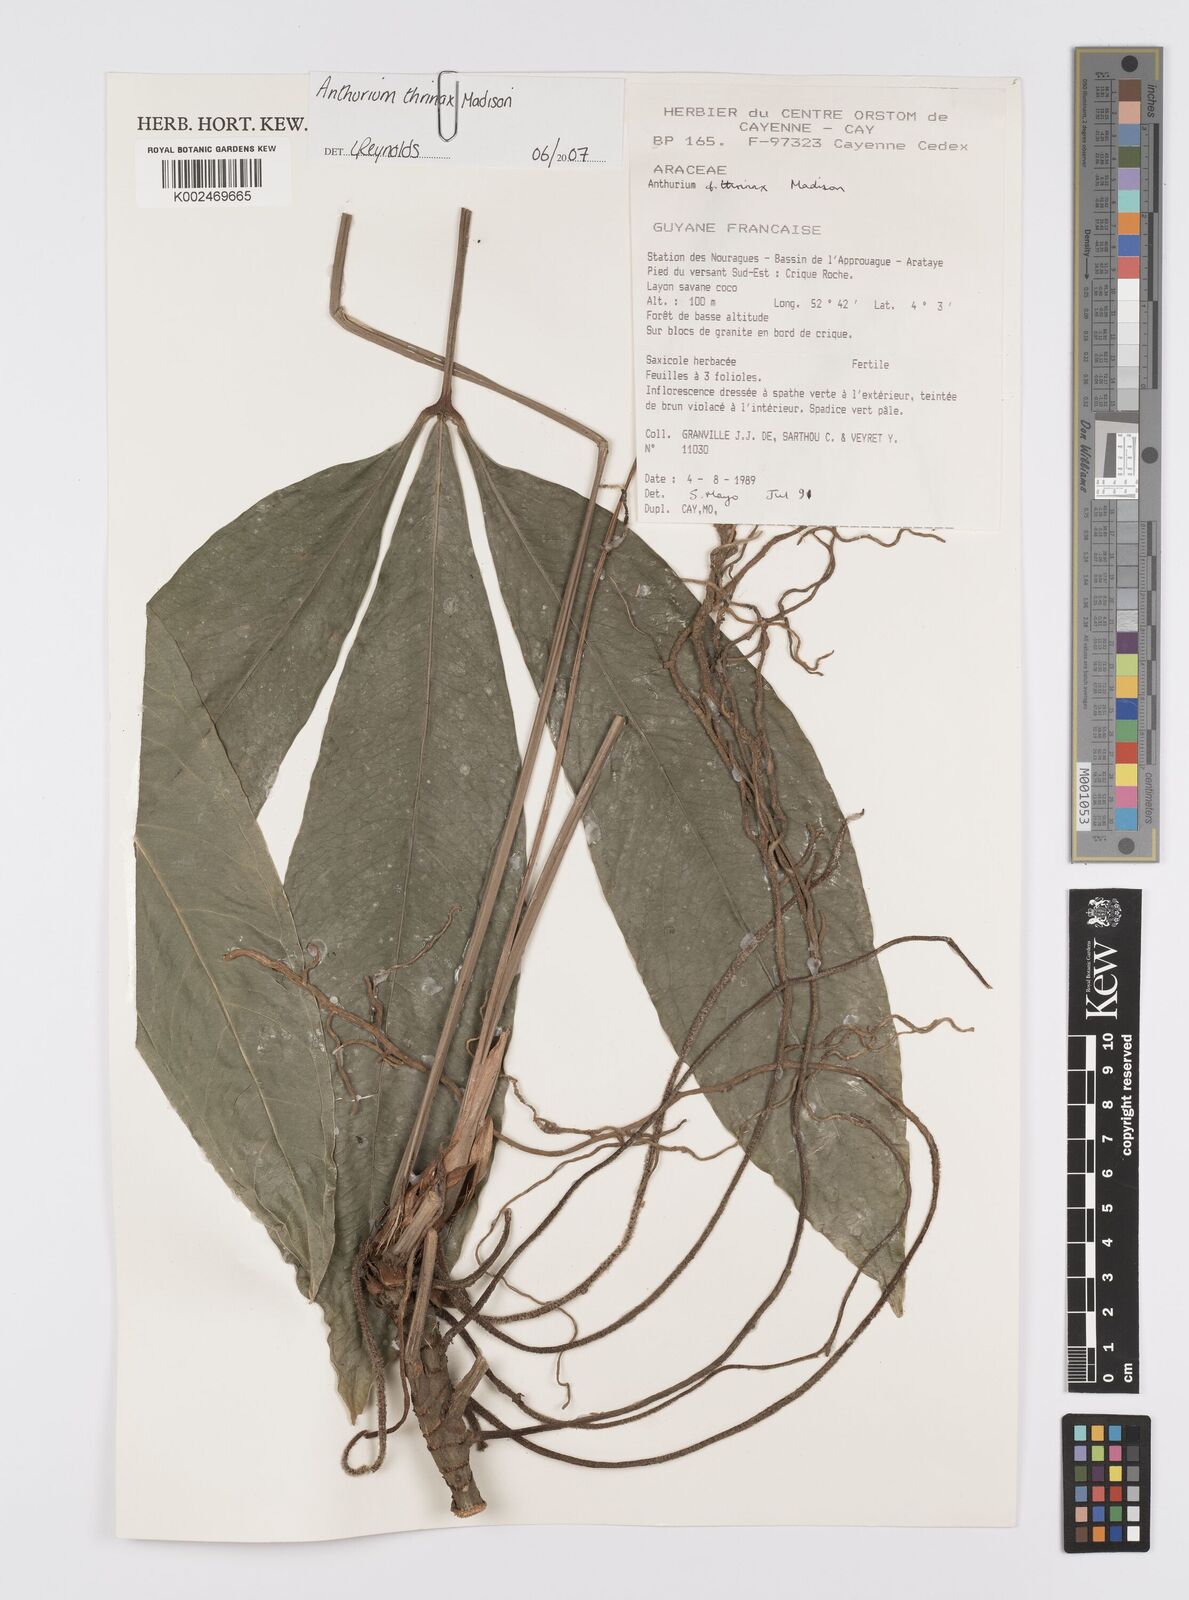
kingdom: Plantae
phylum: Tracheophyta
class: Liliopsida
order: Alismatales
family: Araceae
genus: Anthurium
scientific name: Anthurium thrinax
